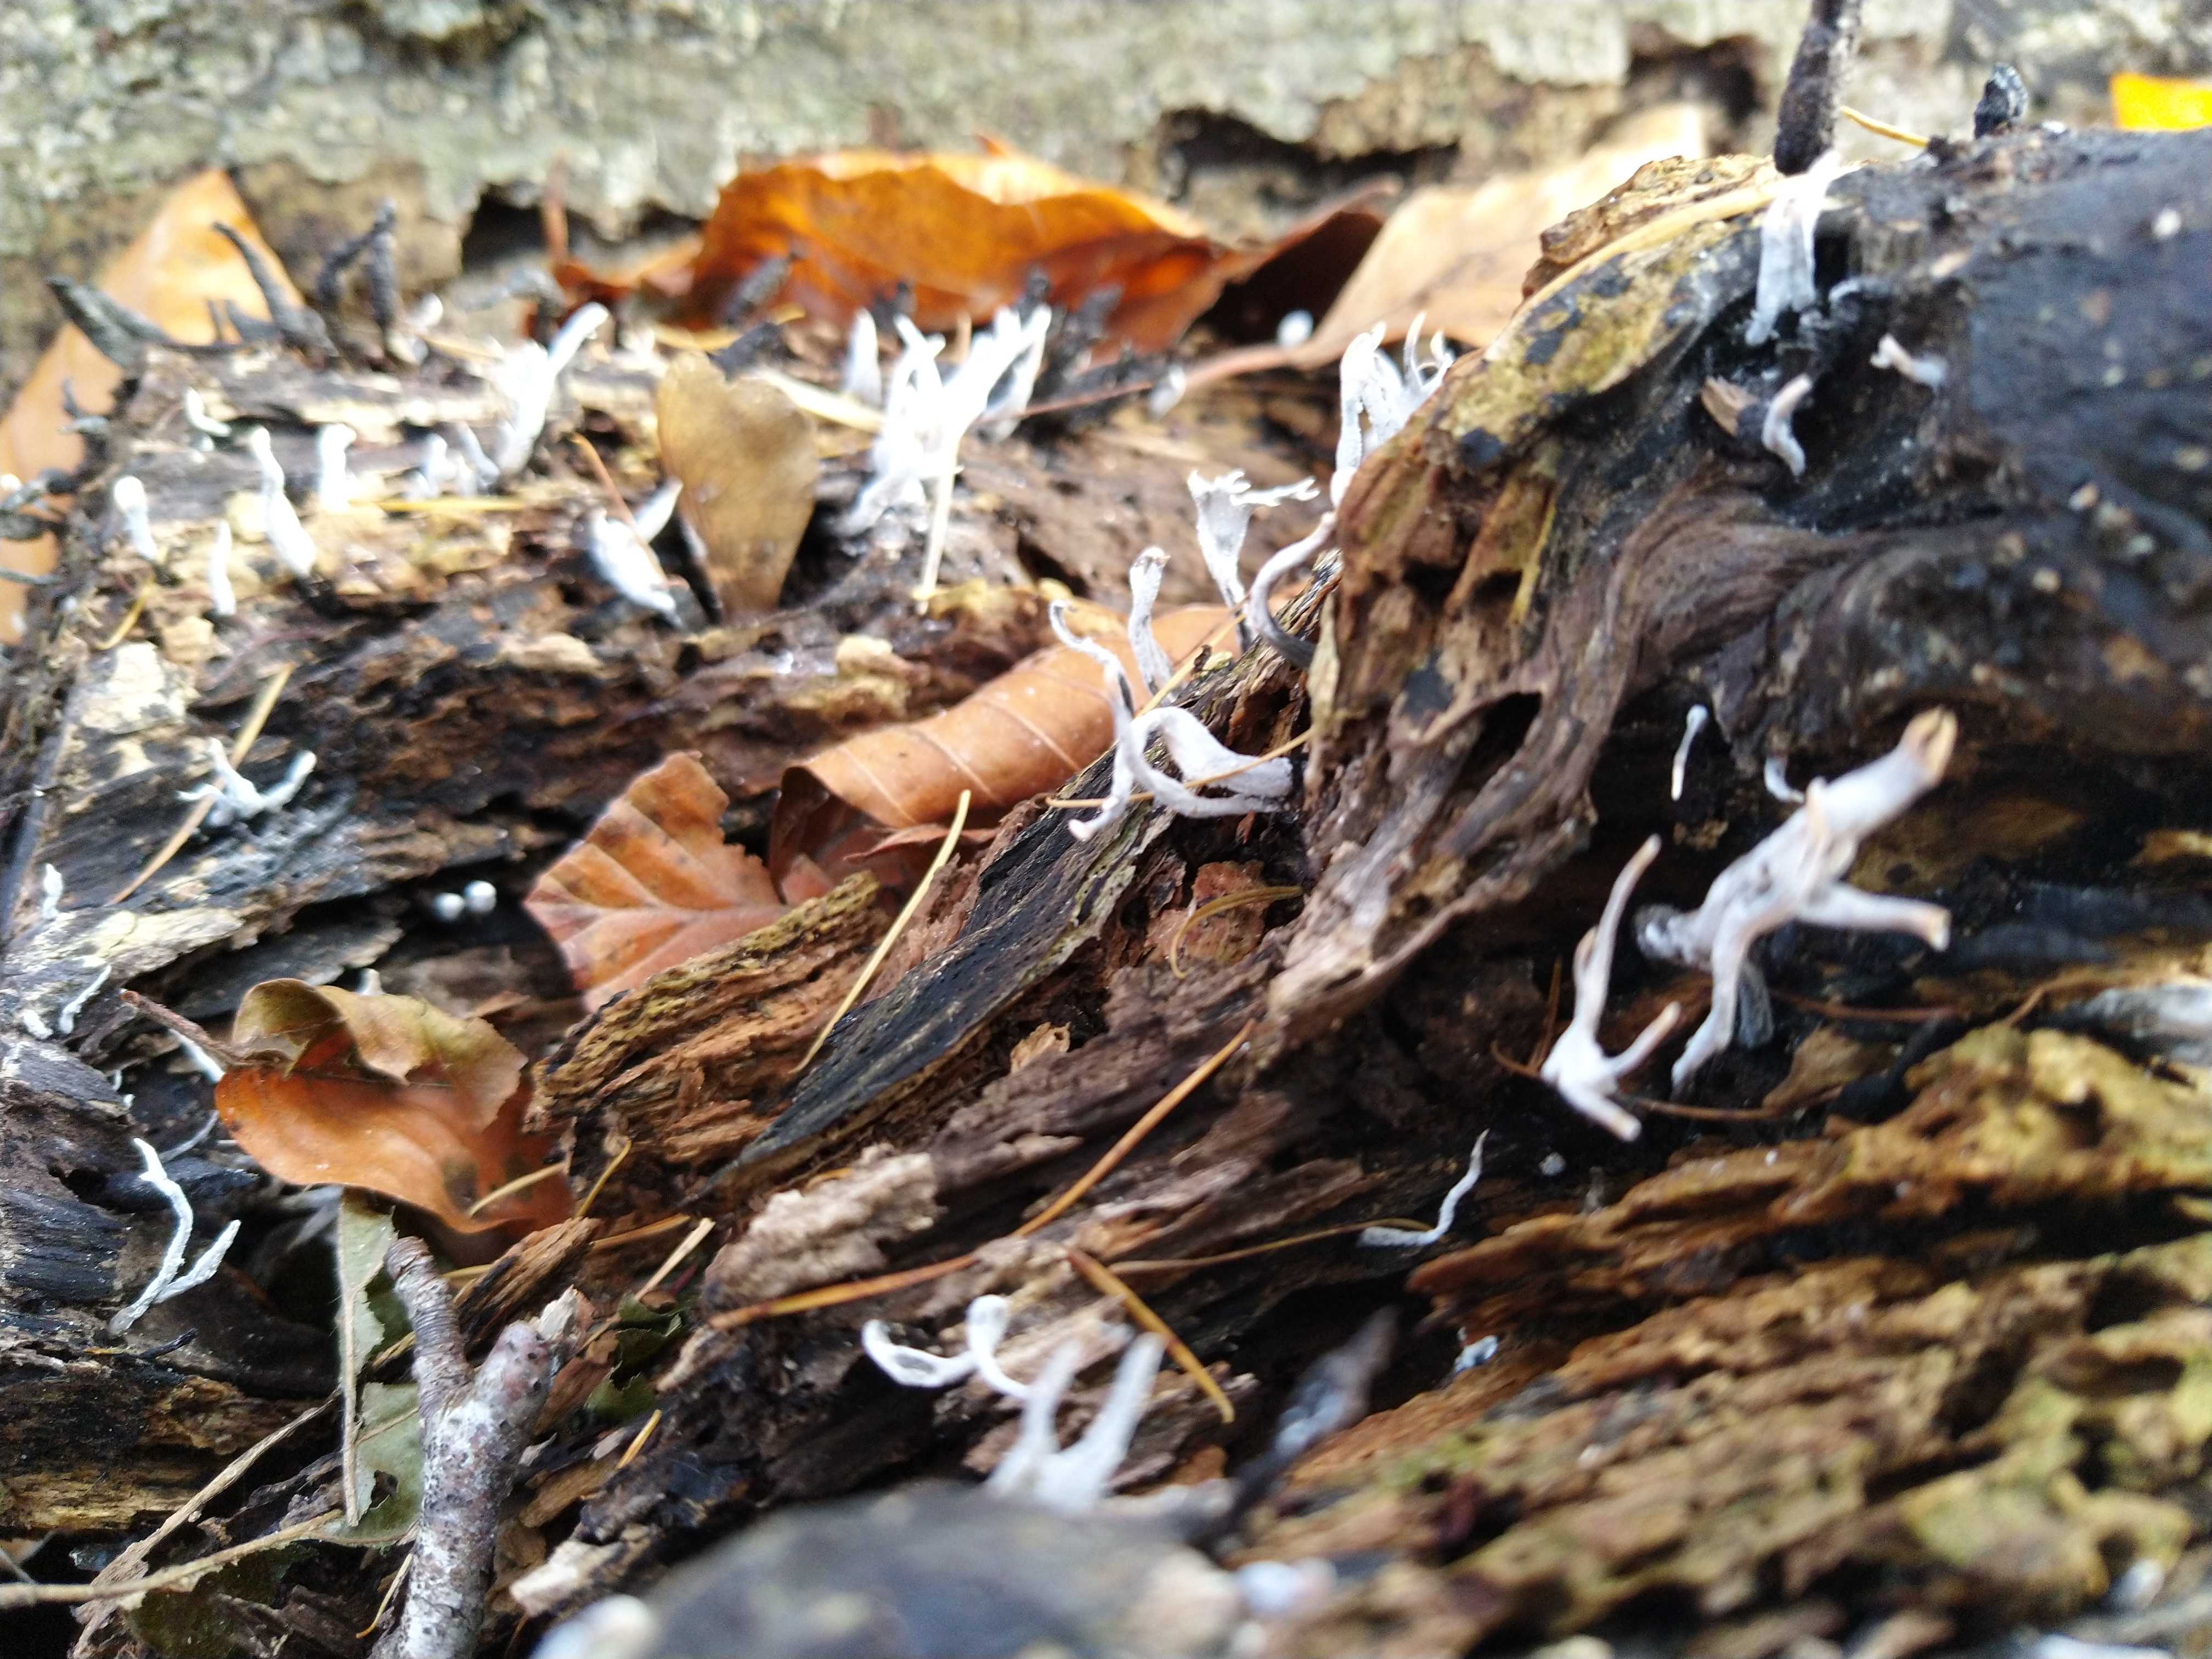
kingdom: Fungi
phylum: Ascomycota
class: Sordariomycetes
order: Xylariales
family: Xylariaceae
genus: Xylaria
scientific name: Xylaria hypoxylon
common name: grenet stødsvamp
